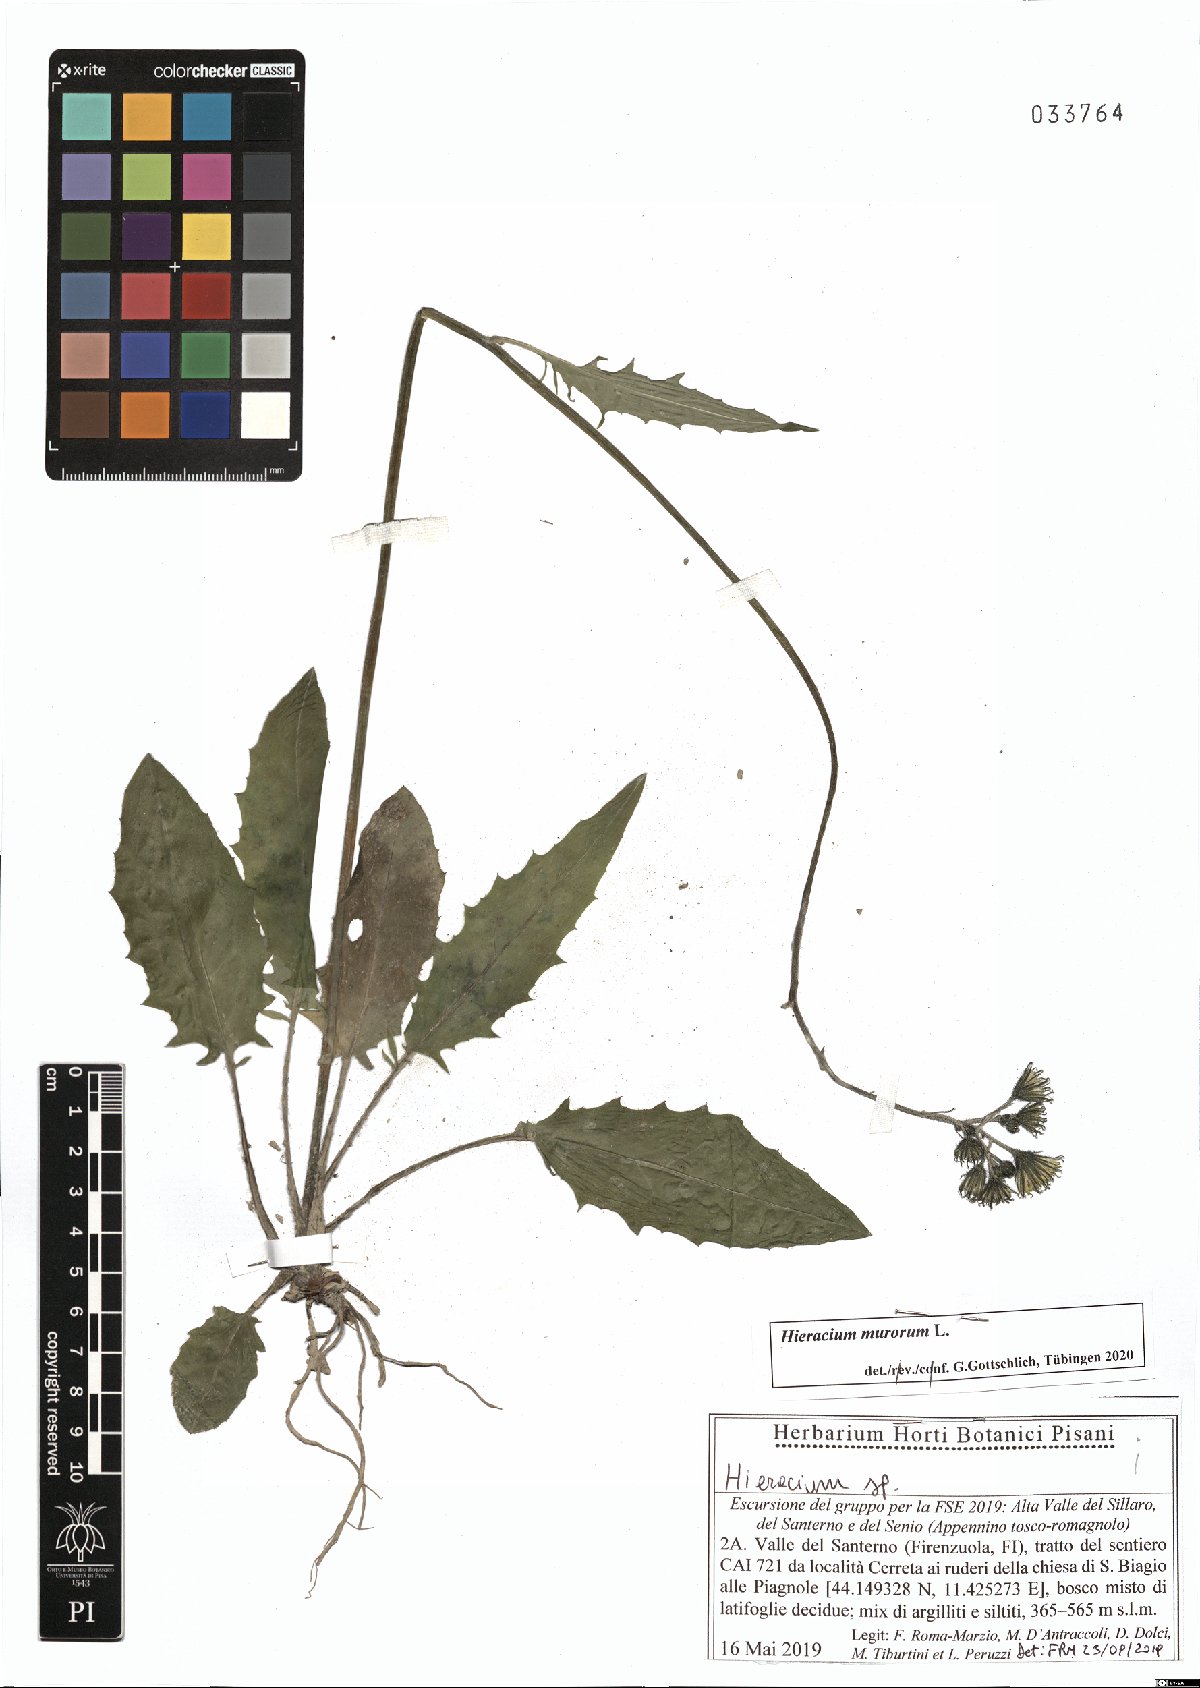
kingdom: Plantae
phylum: Tracheophyta
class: Magnoliopsida
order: Asterales
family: Asteraceae
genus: Hieracium
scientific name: Hieracium murorum
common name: Wall hawkweed
